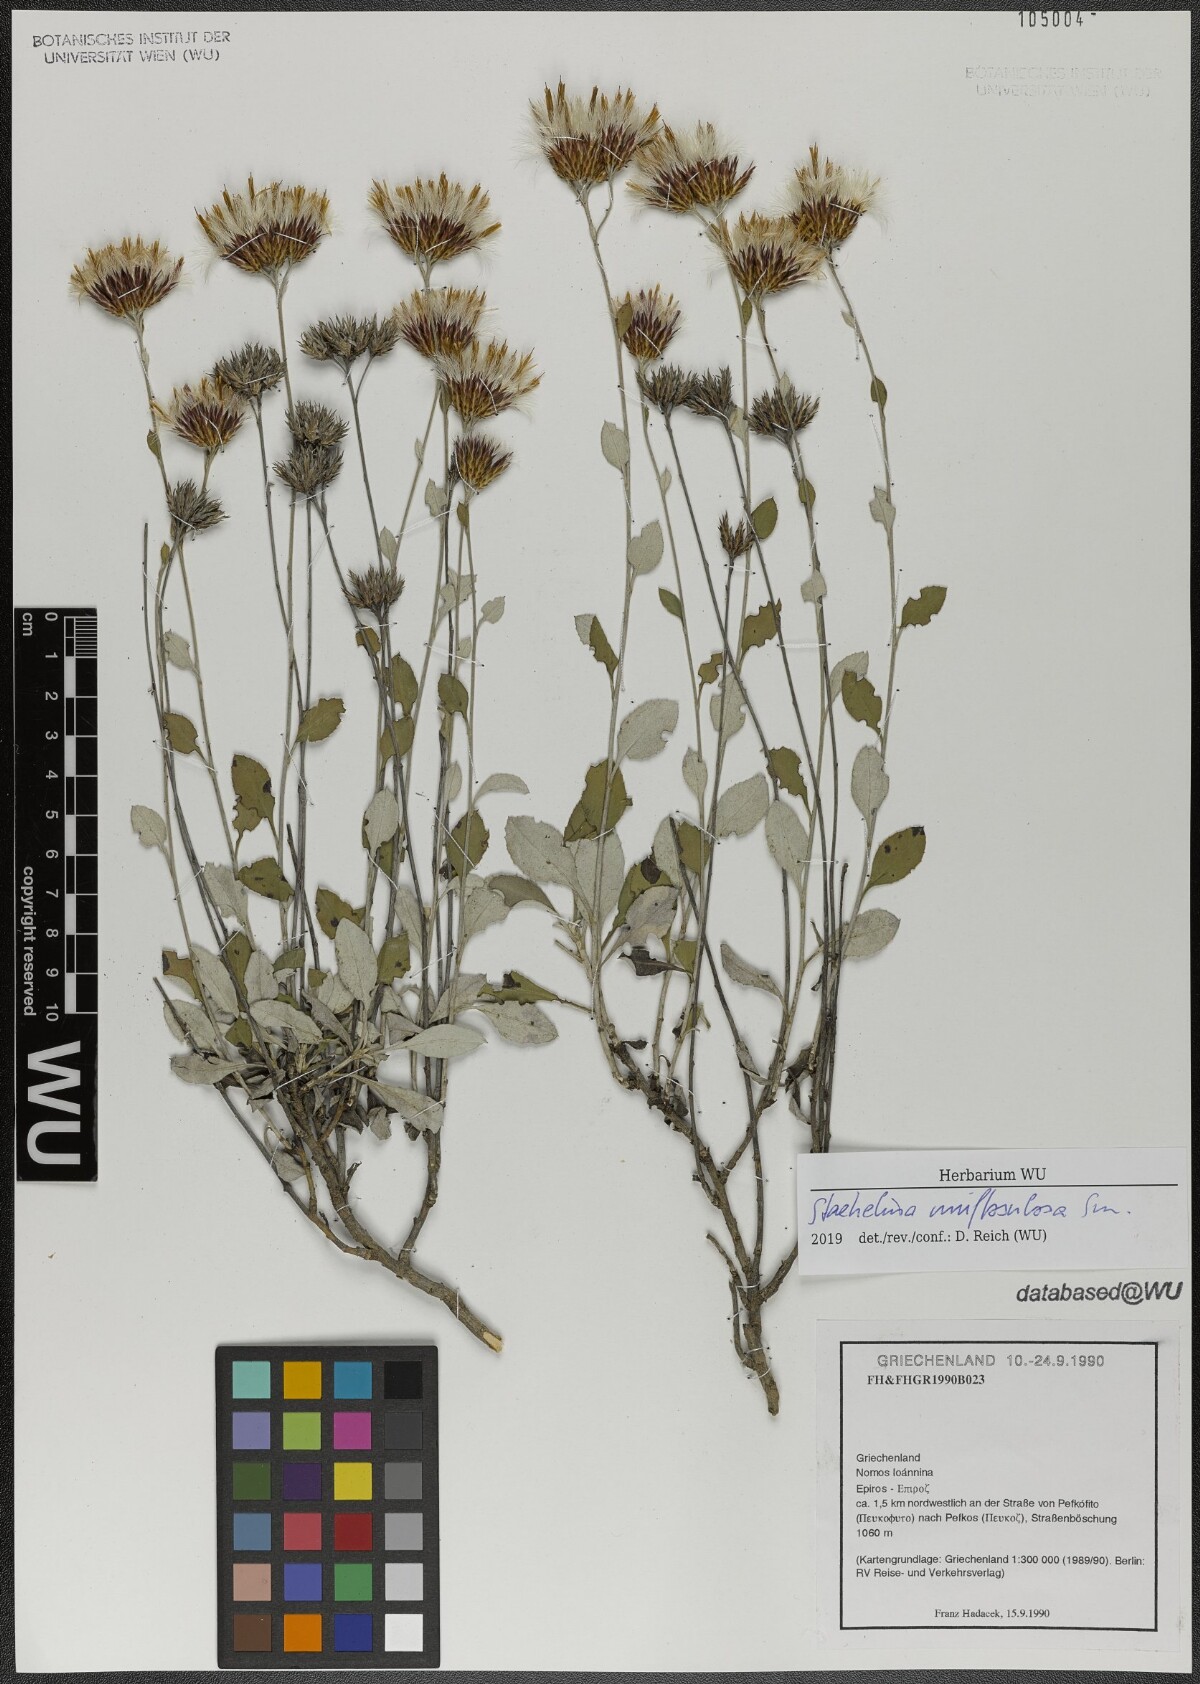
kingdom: Plantae
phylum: Tracheophyta
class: Magnoliopsida
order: Asterales
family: Asteraceae
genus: Staehelina
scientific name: Staehelina uniflosculosa
